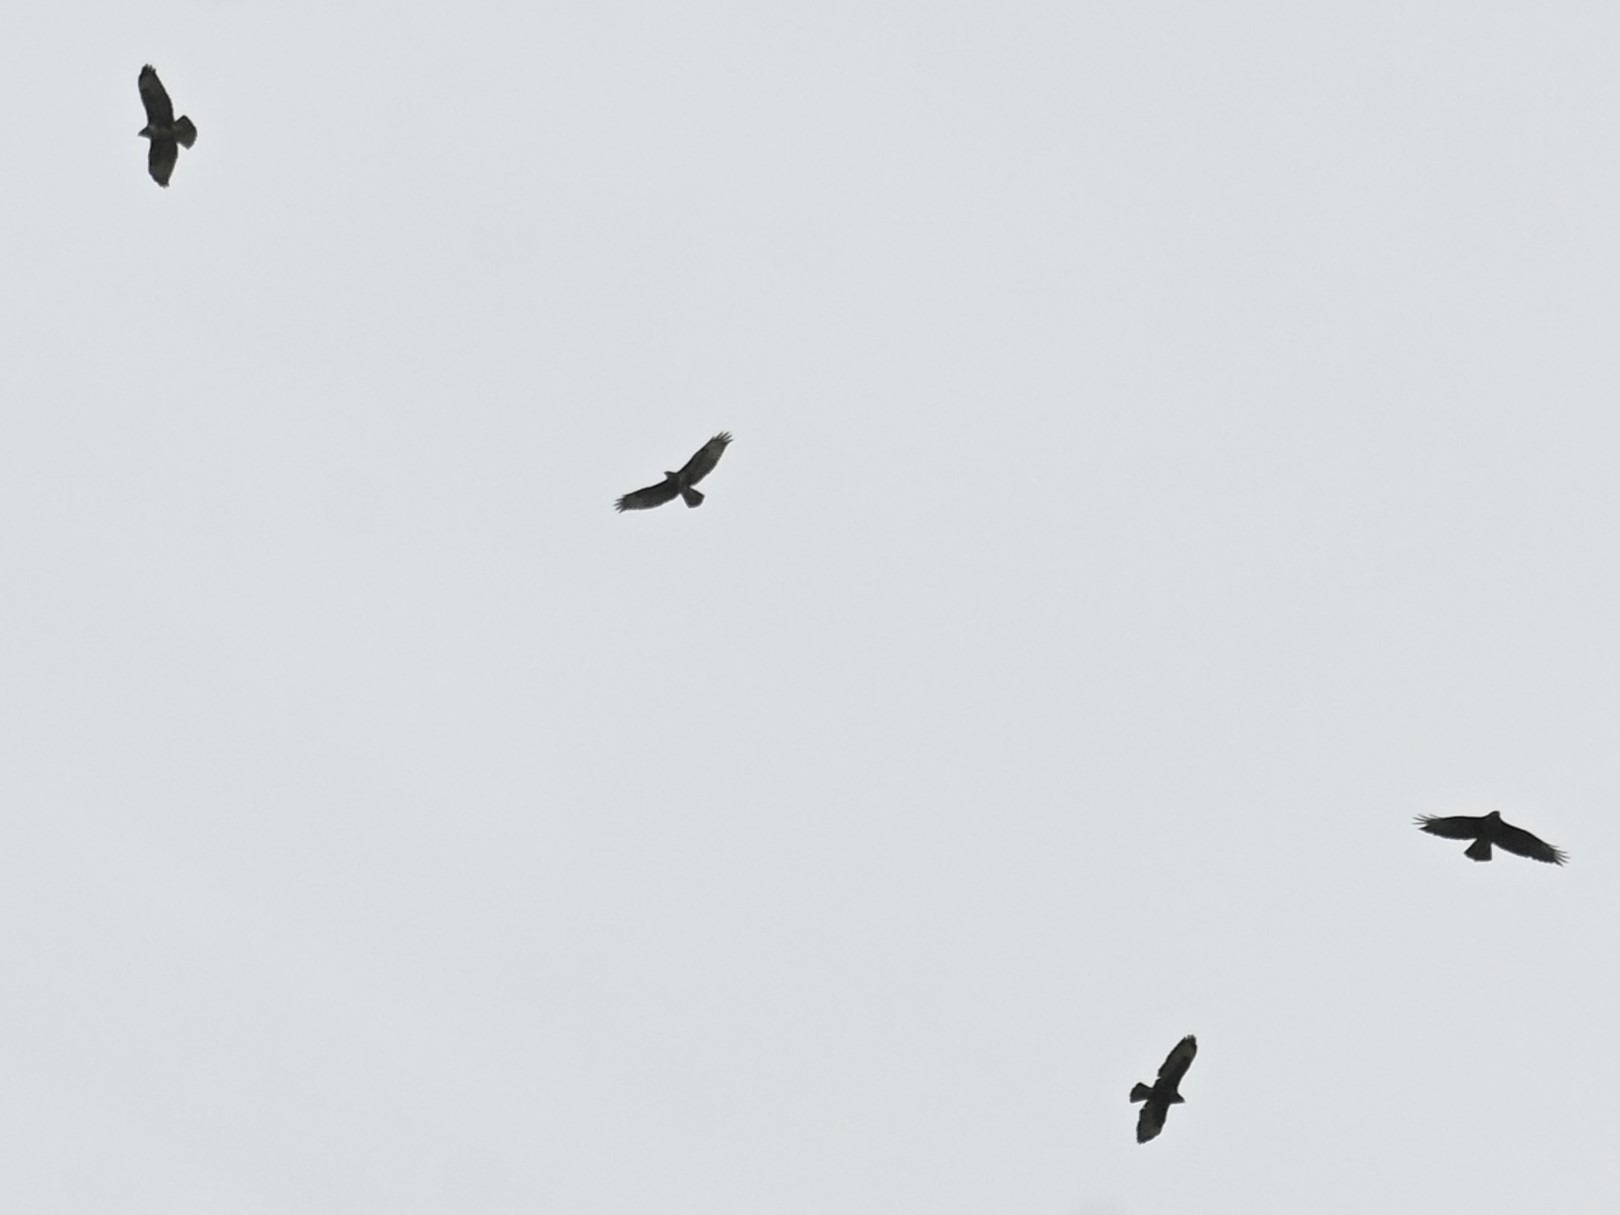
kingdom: Animalia
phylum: Chordata
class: Aves
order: Accipitriformes
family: Accipitridae
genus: Buteo
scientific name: Buteo buteo
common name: Musvåge
